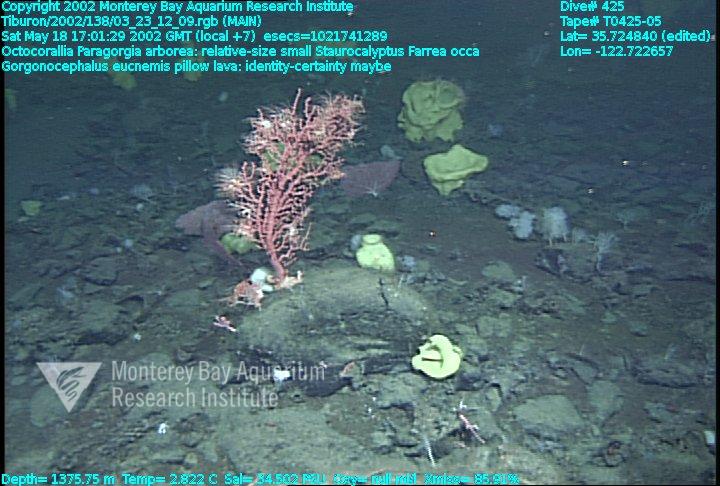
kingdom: Animalia
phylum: Porifera
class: Hexactinellida
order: Lyssacinosida
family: Rossellidae
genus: Staurocalyptus
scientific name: Staurocalyptus
